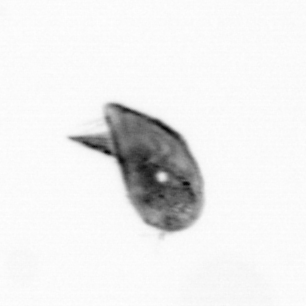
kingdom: Animalia
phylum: Arthropoda
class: Maxillopoda
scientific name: Maxillopoda
